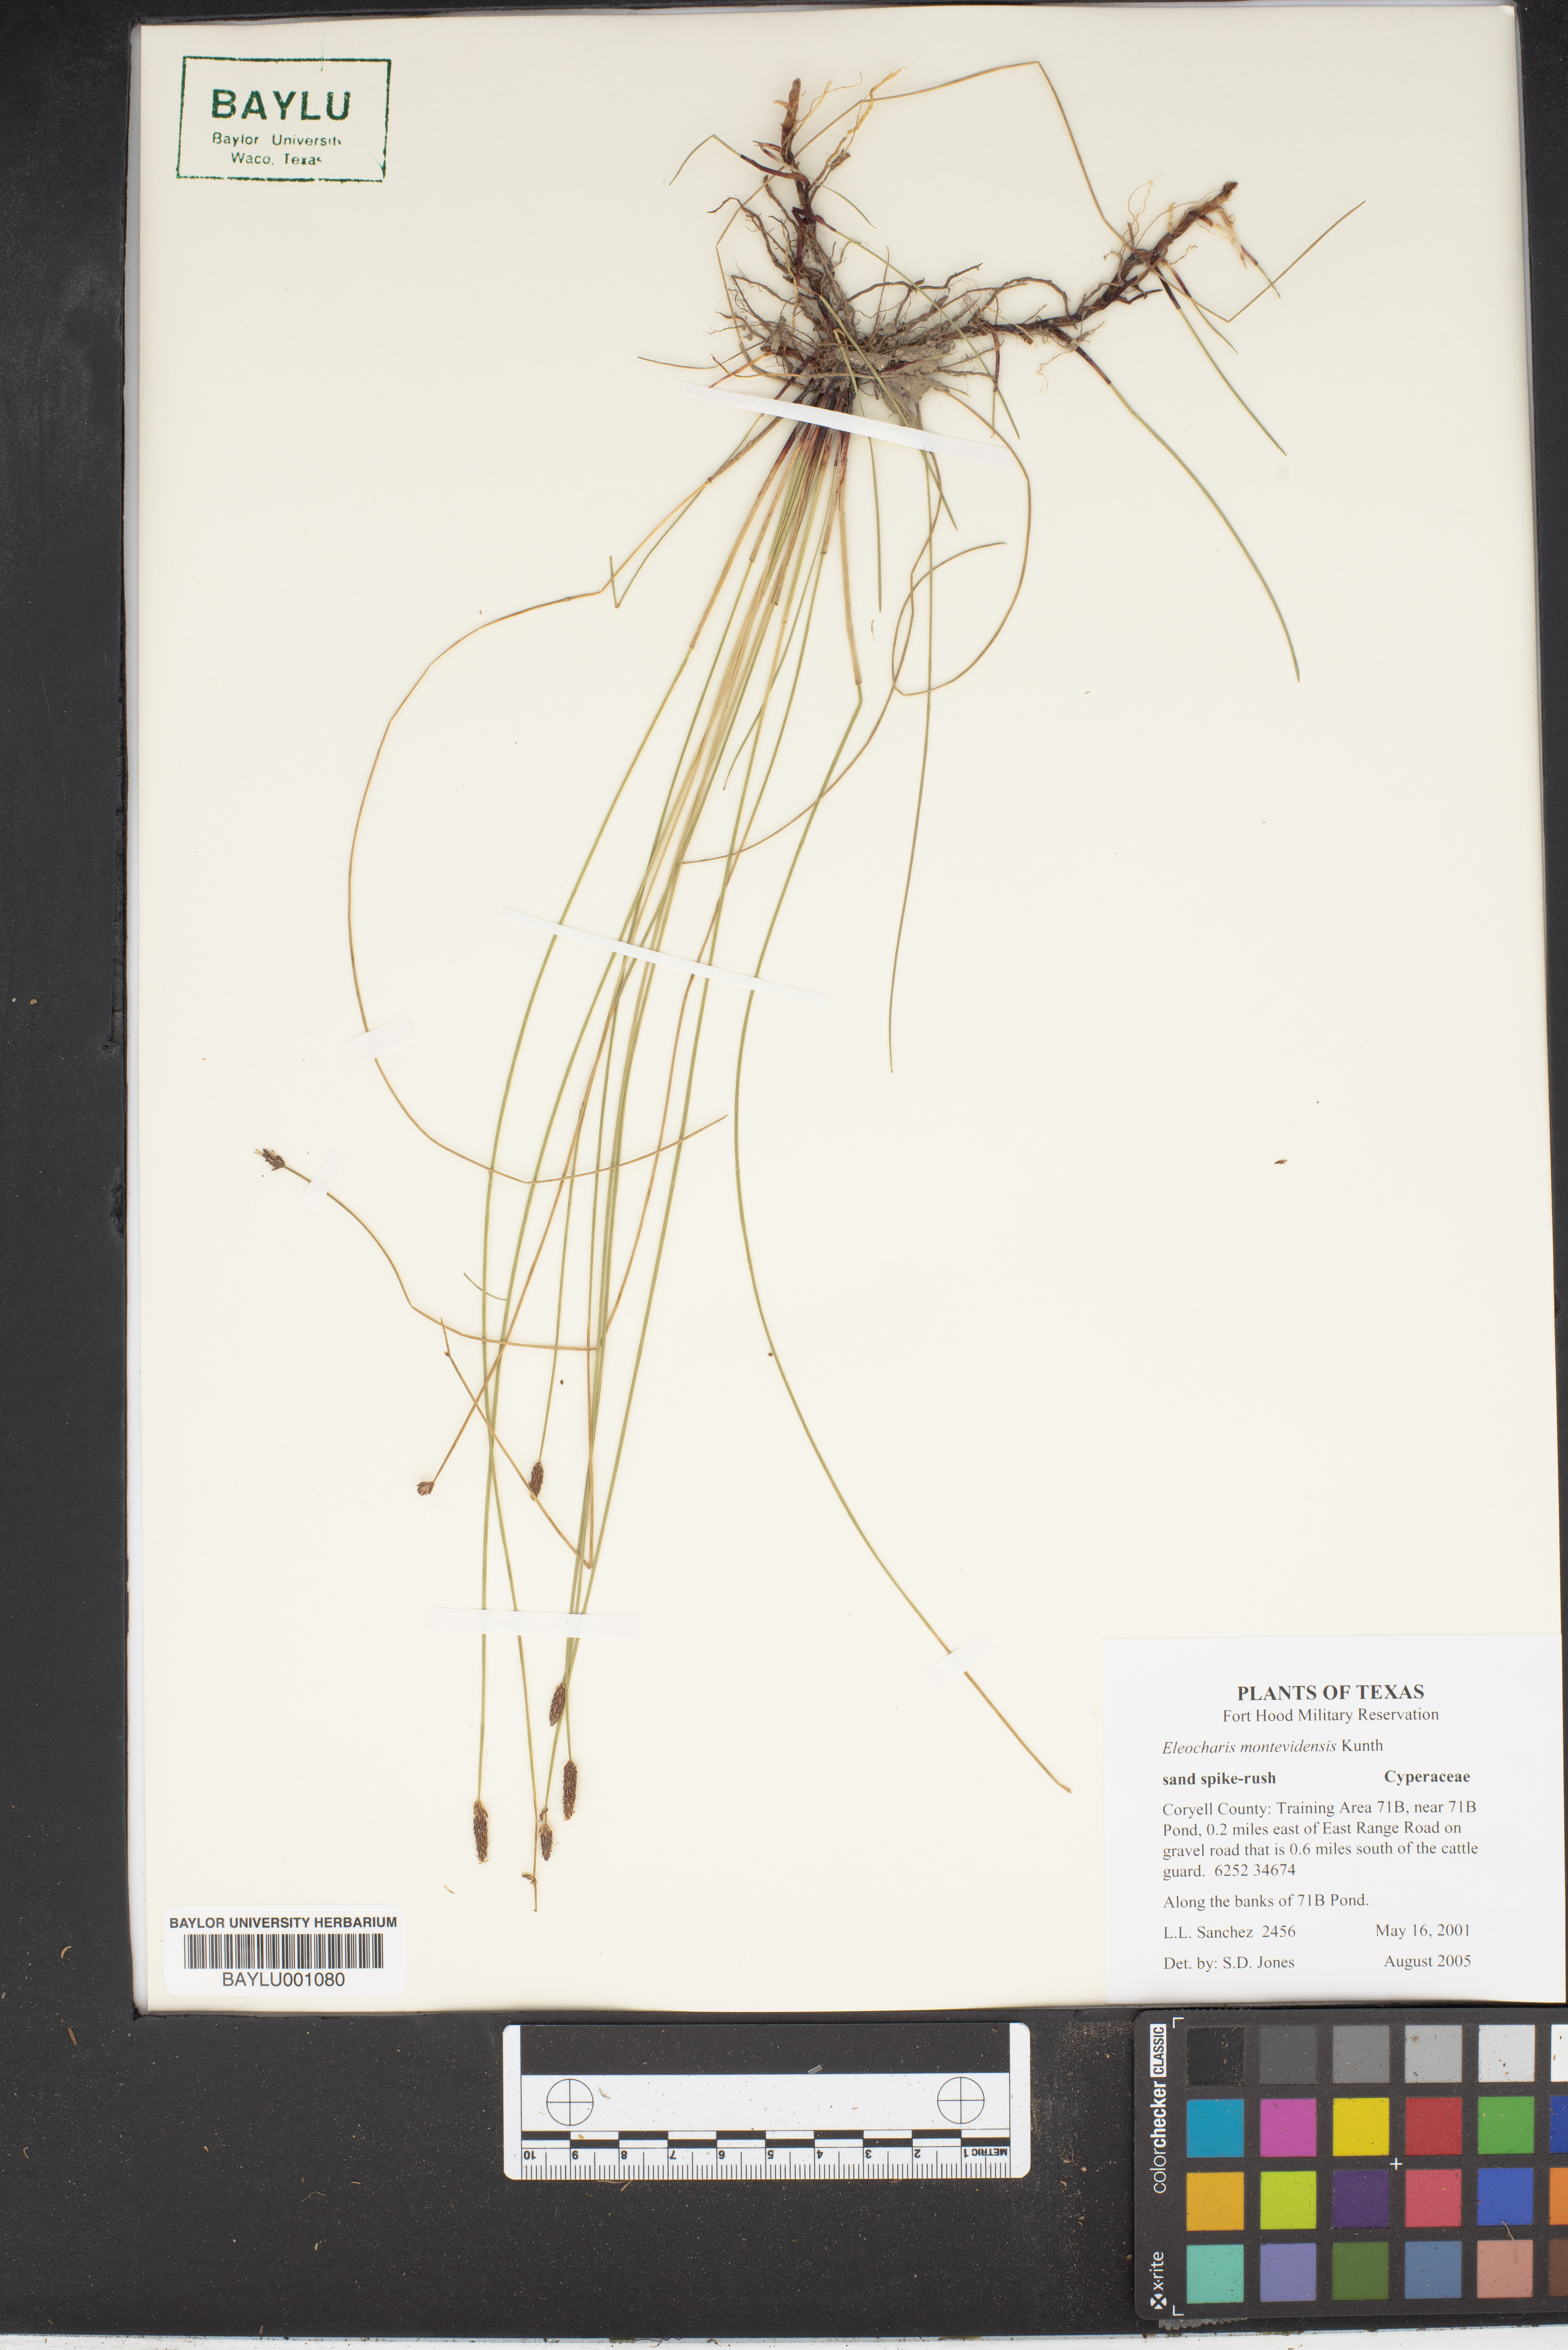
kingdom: Plantae
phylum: Tracheophyta
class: Liliopsida
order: Poales
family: Cyperaceae
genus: Eleocharis
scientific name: Eleocharis montevidensis
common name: Sand spike-rush
